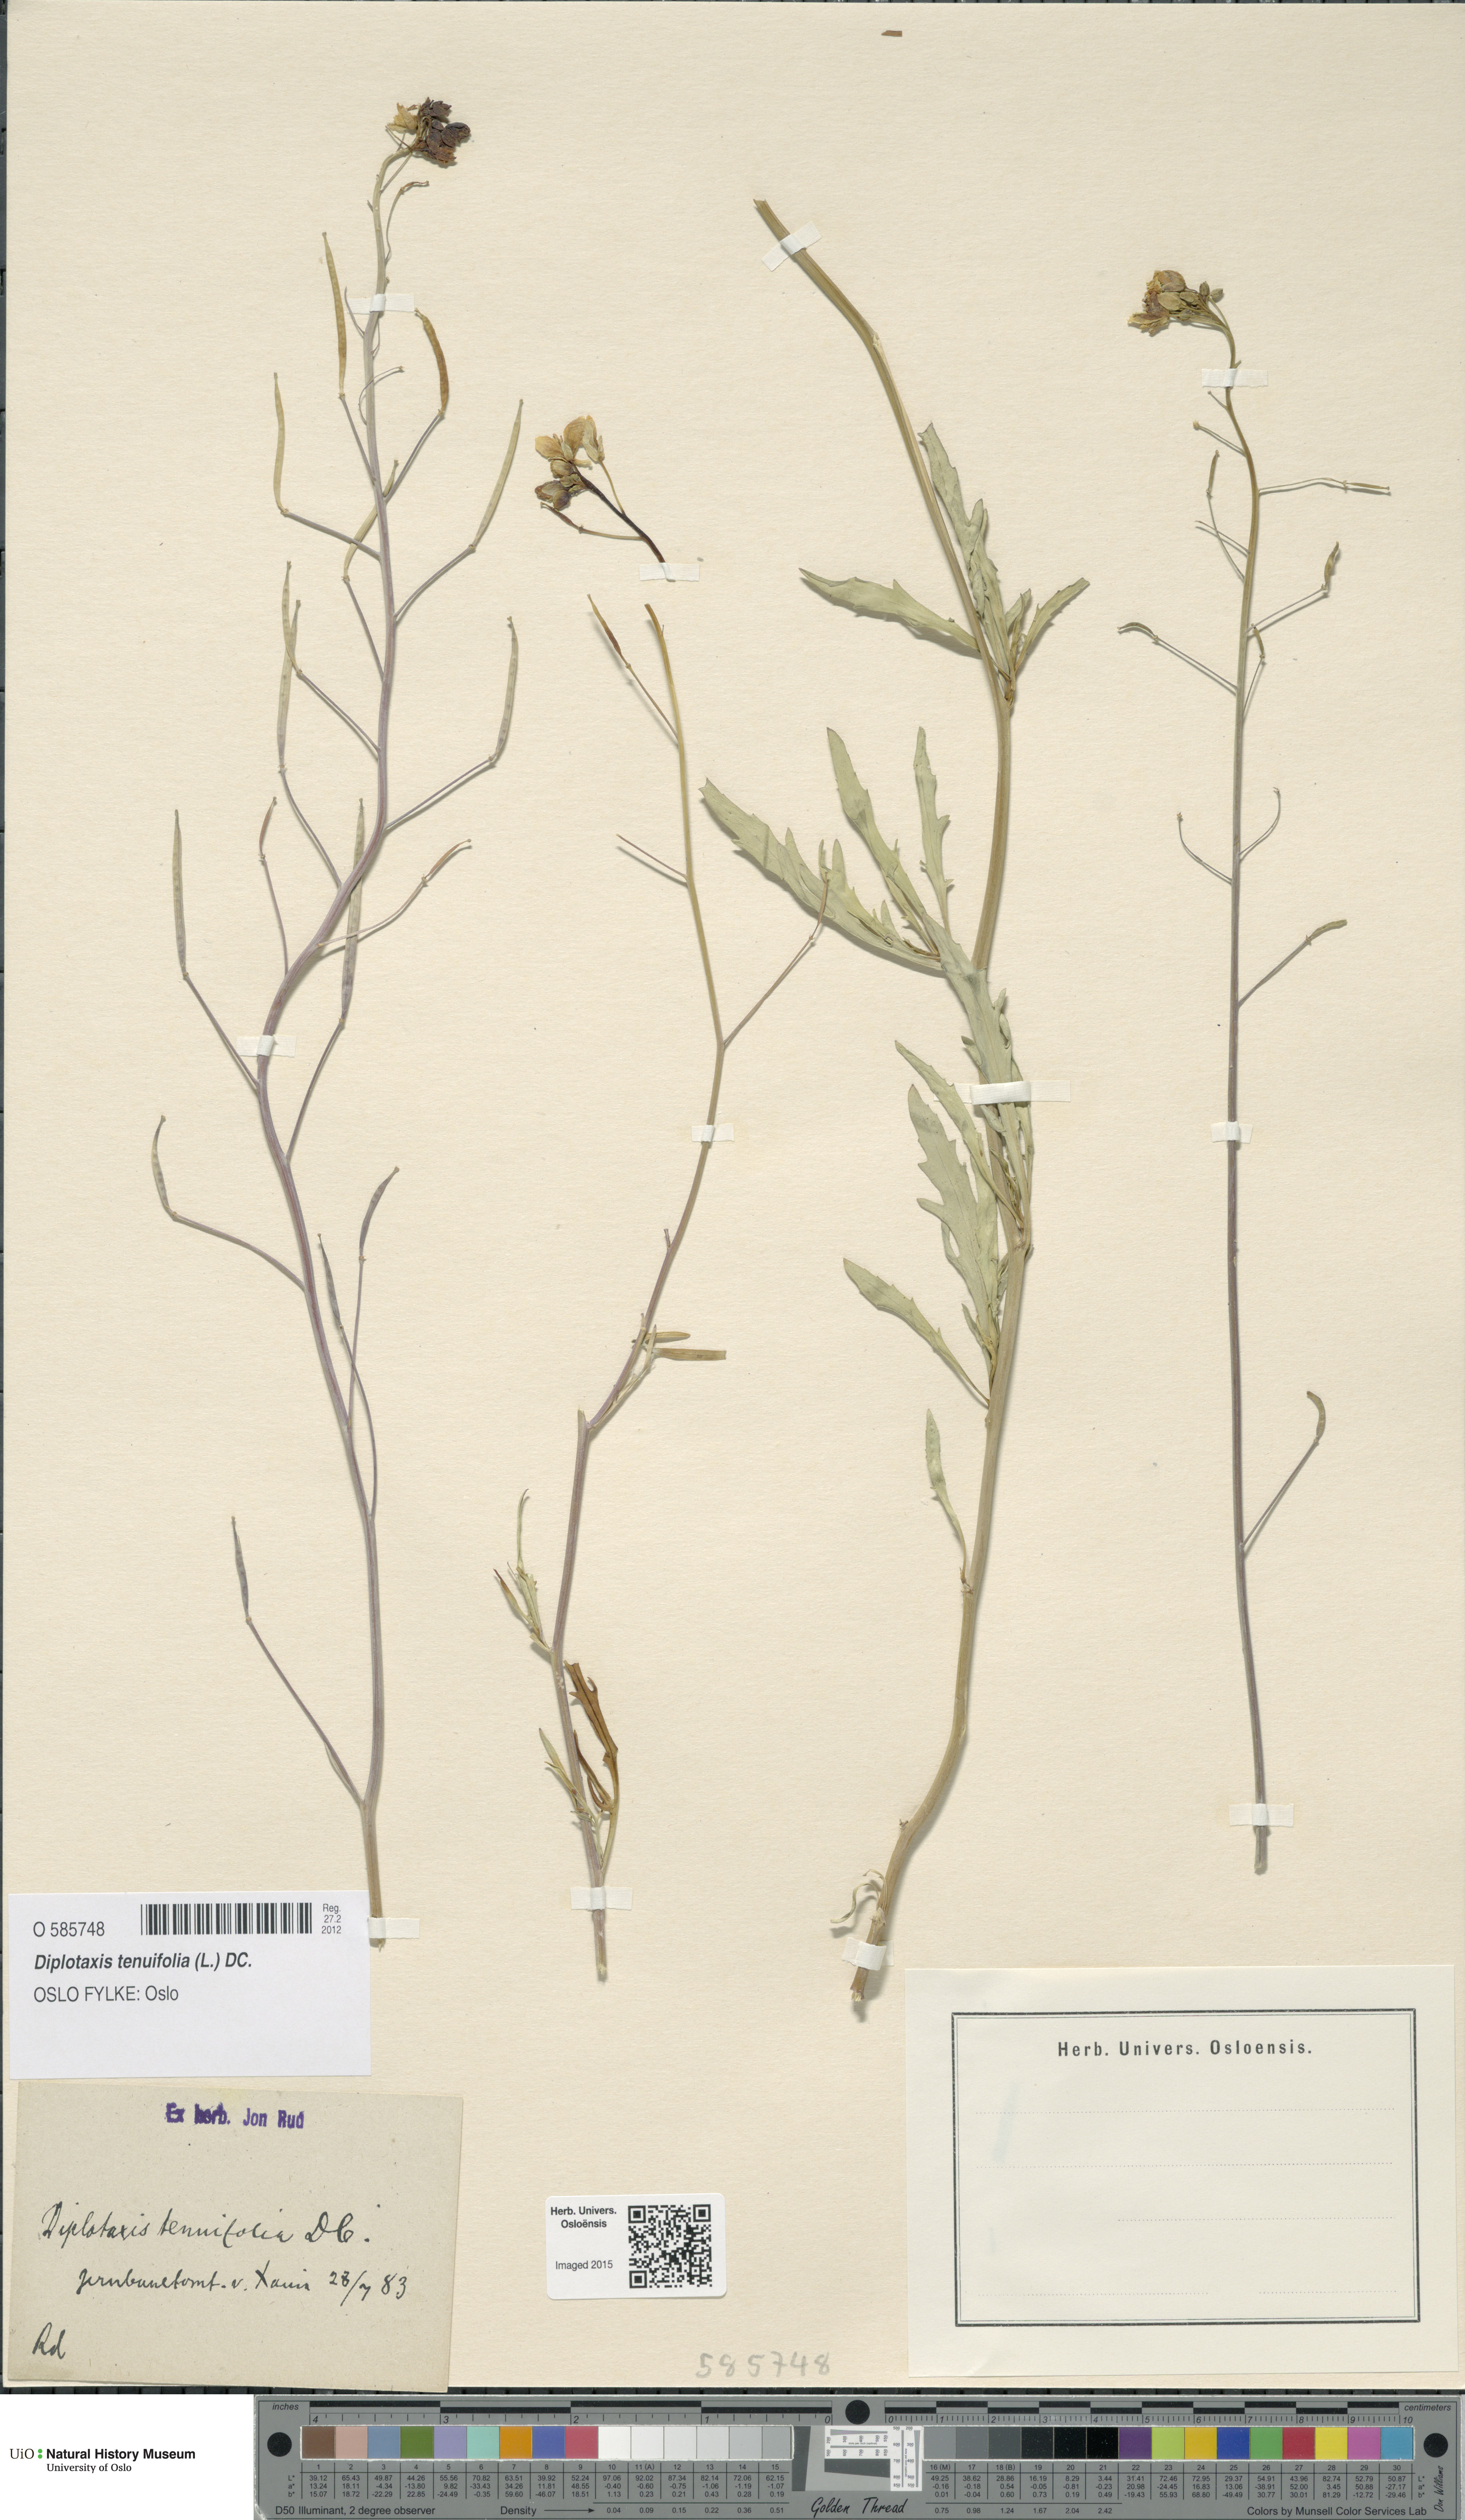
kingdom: Plantae
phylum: Tracheophyta
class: Magnoliopsida
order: Brassicales
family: Brassicaceae
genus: Diplotaxis
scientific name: Diplotaxis tenuifolia
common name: Perennial wall-rocket
